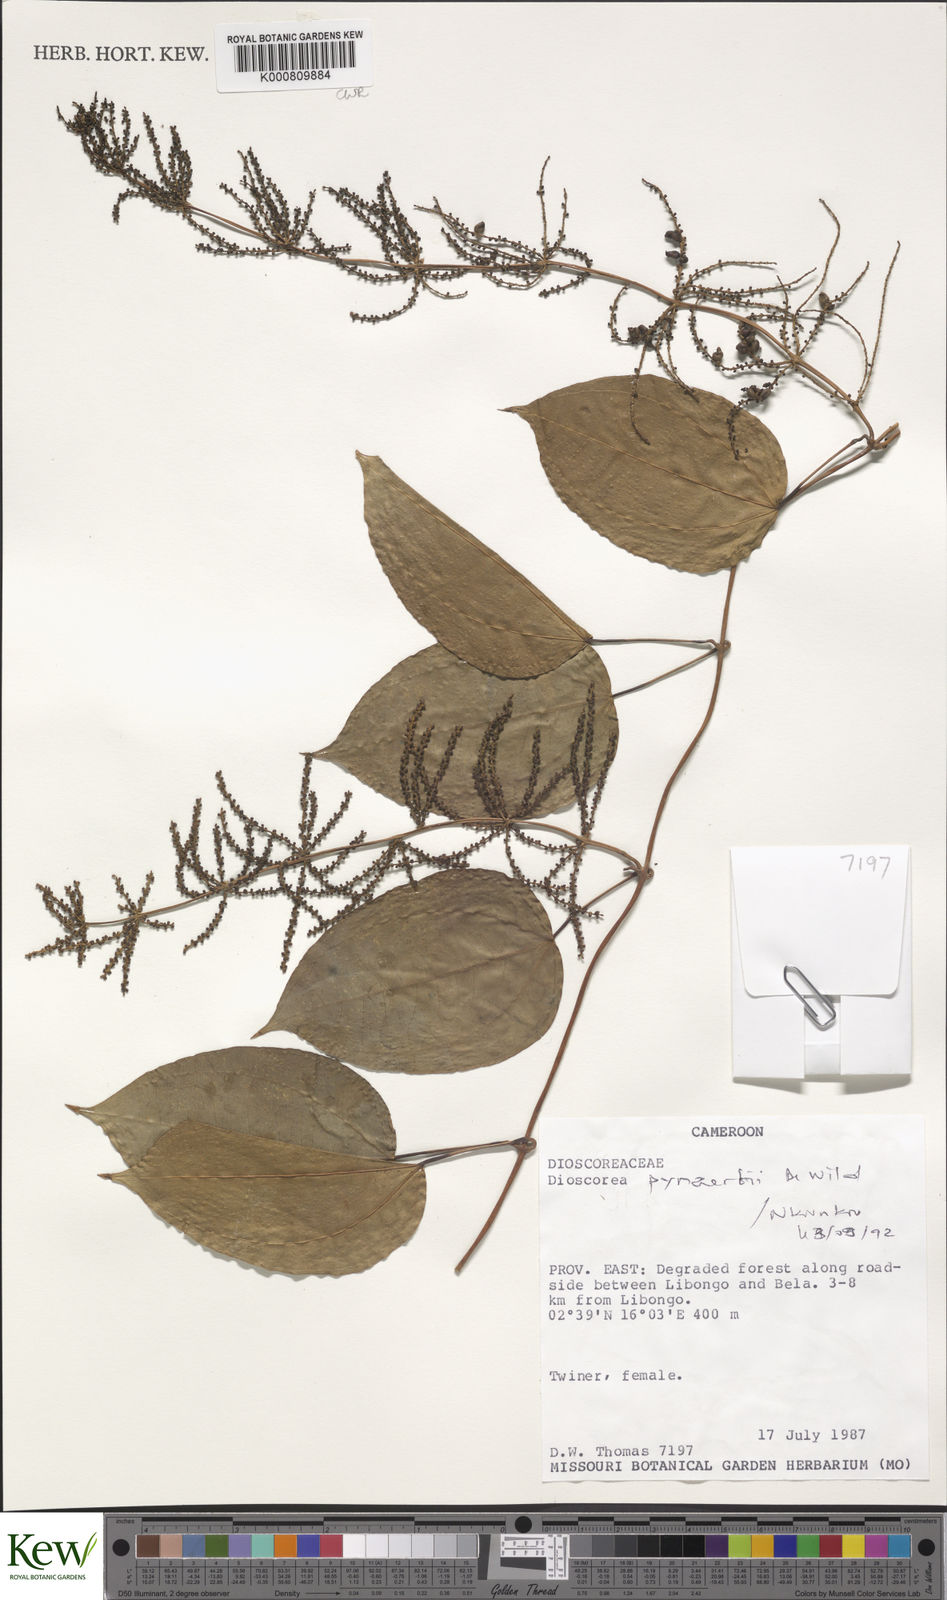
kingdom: Plantae
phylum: Tracheophyta
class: Liliopsida
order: Dioscoreales
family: Dioscoreaceae
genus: Dioscorea
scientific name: Dioscorea pynaertii
